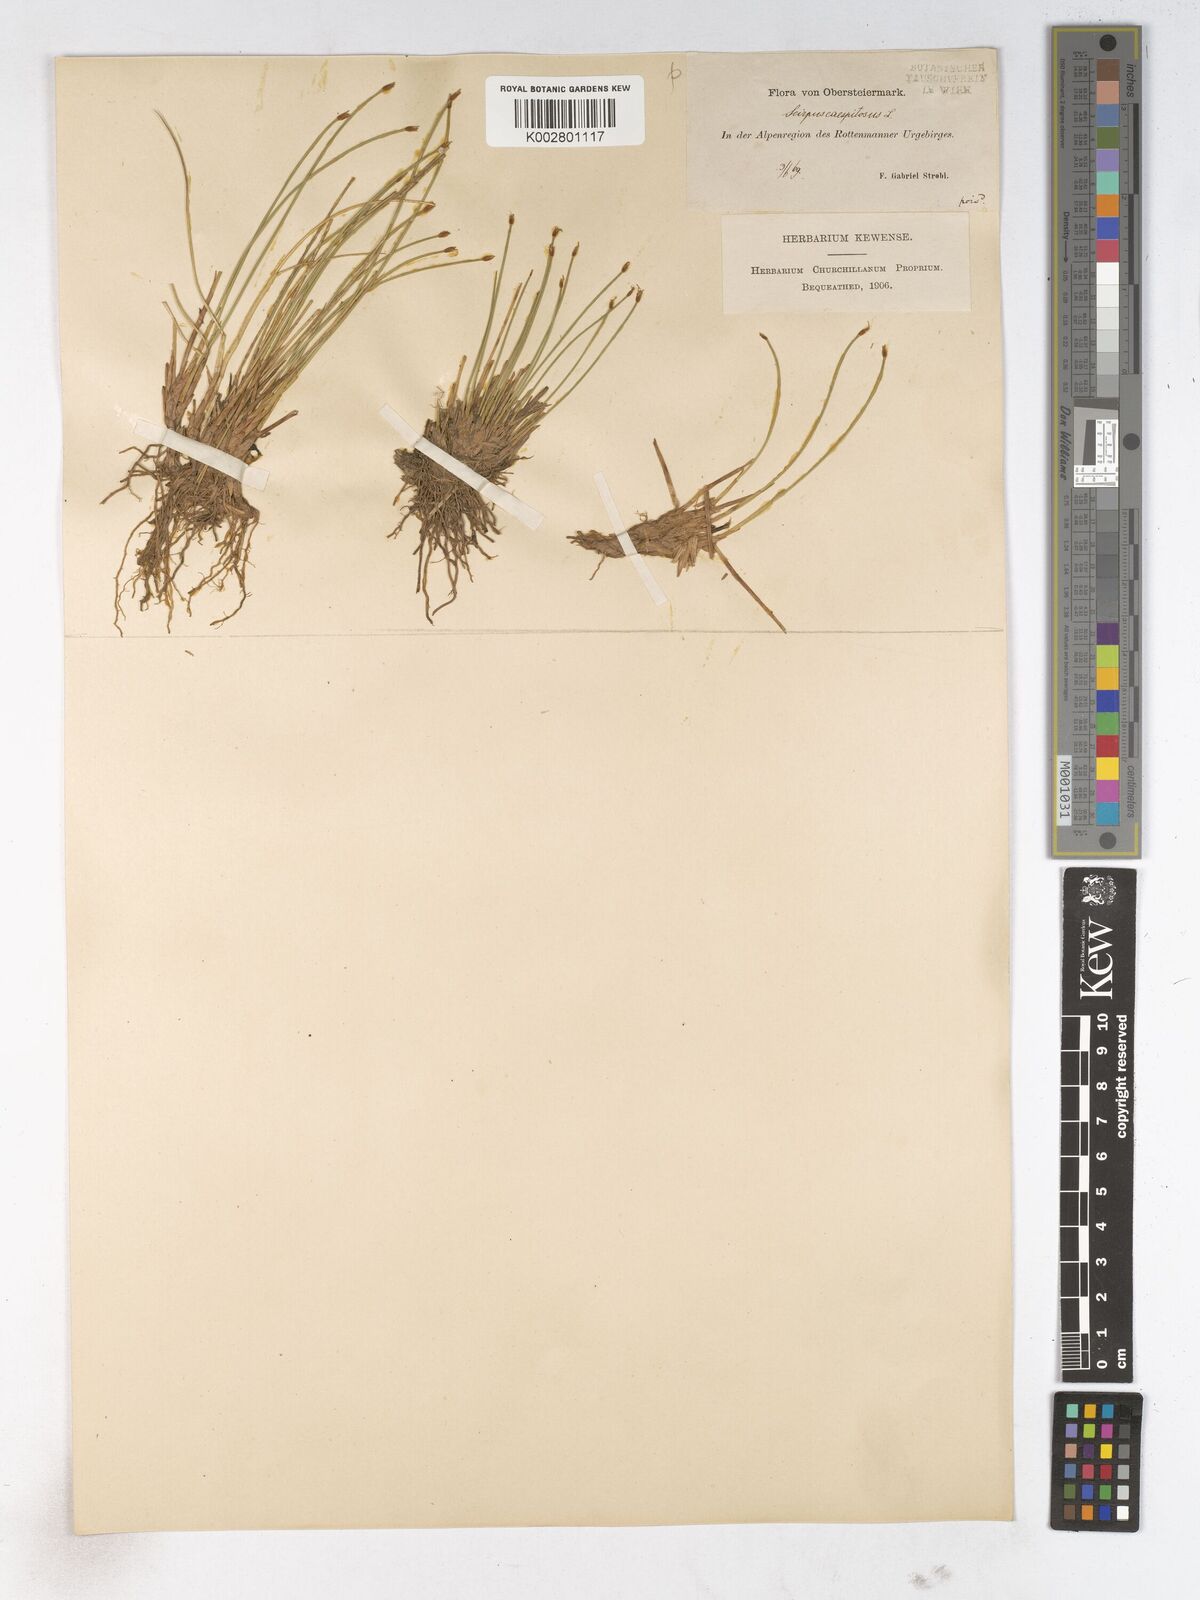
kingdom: Plantae
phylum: Tracheophyta
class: Liliopsida
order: Poales
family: Cyperaceae
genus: Trichophorum
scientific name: Trichophorum cespitosum
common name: Cespitose bulrush
